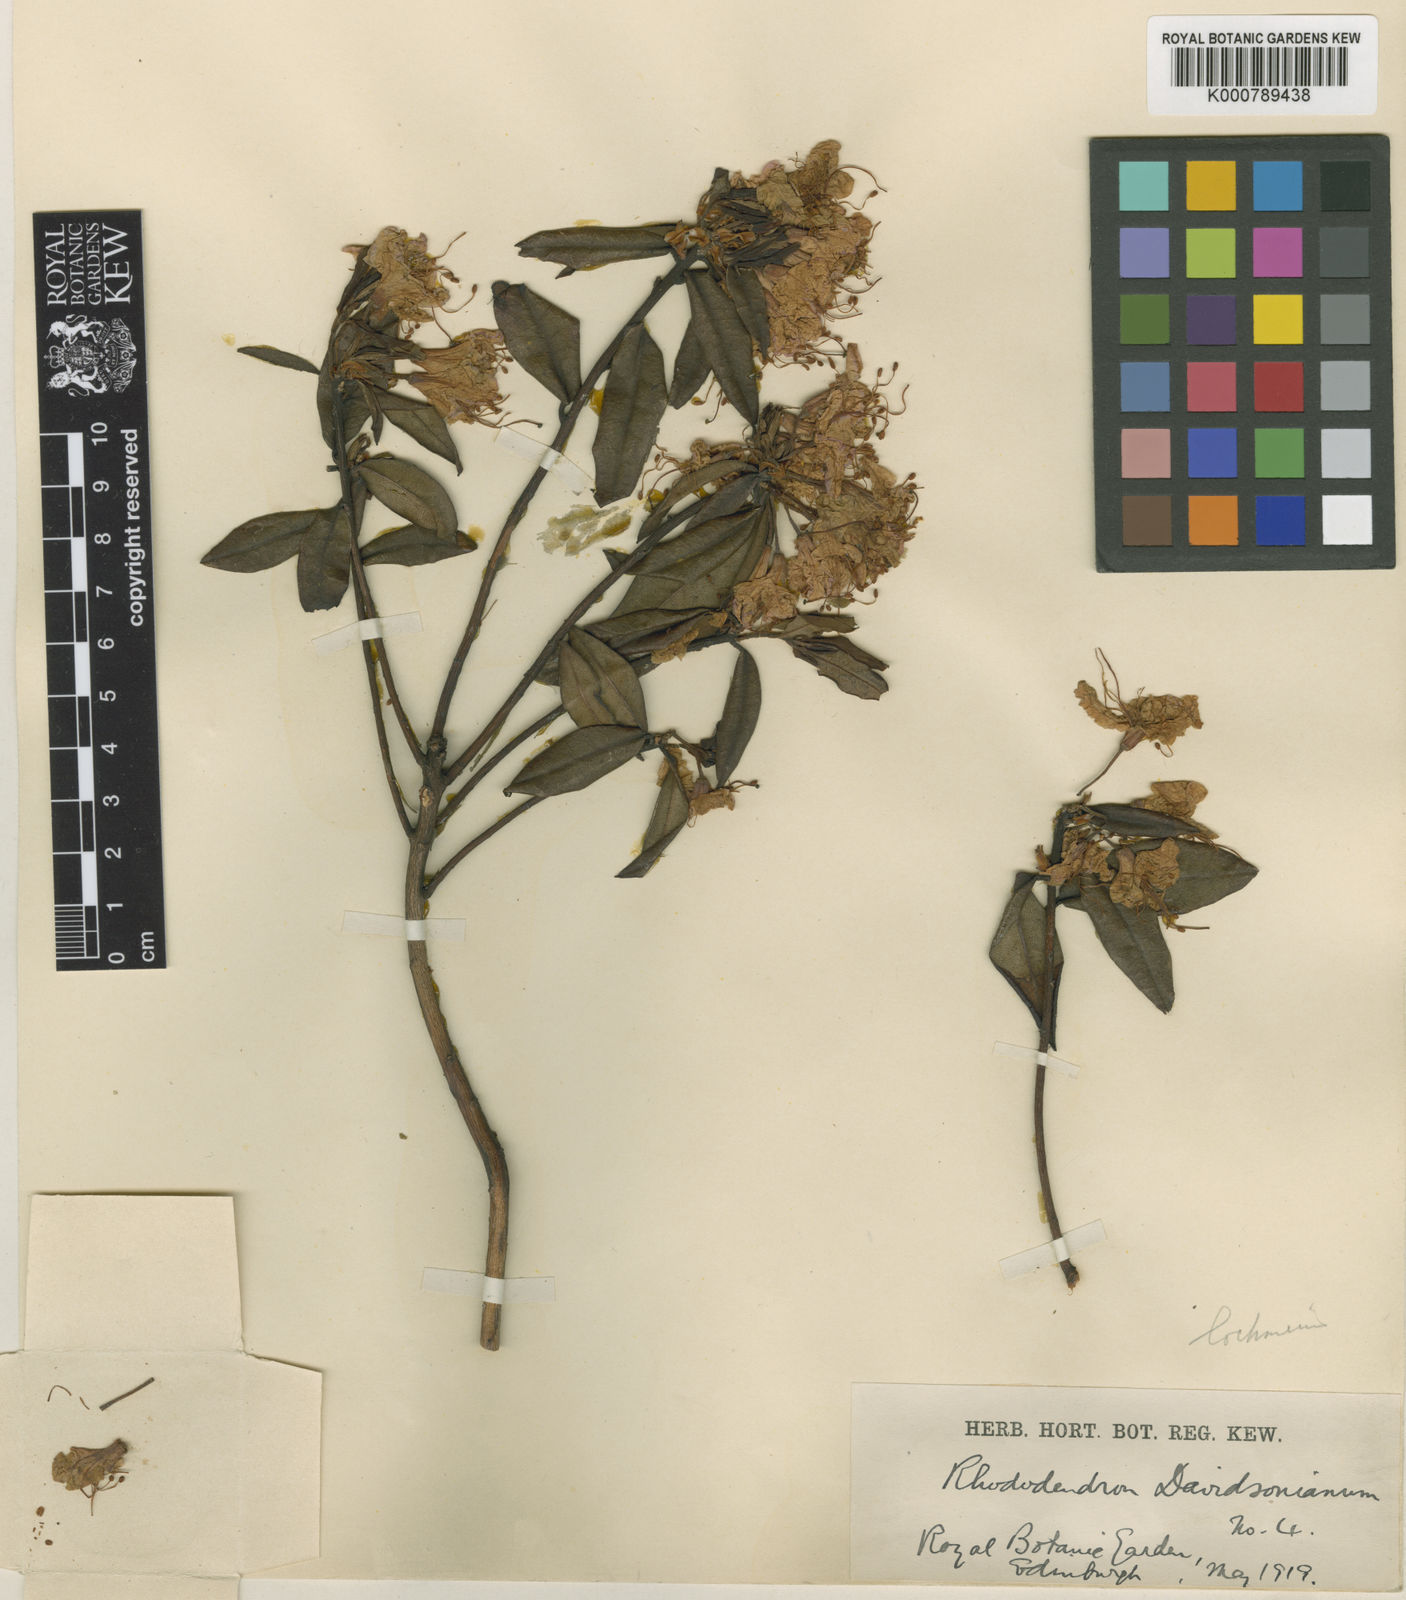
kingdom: Plantae
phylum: Tracheophyta
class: Magnoliopsida
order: Ericales
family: Ericaceae
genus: Rhododendron
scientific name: Rhododendron
